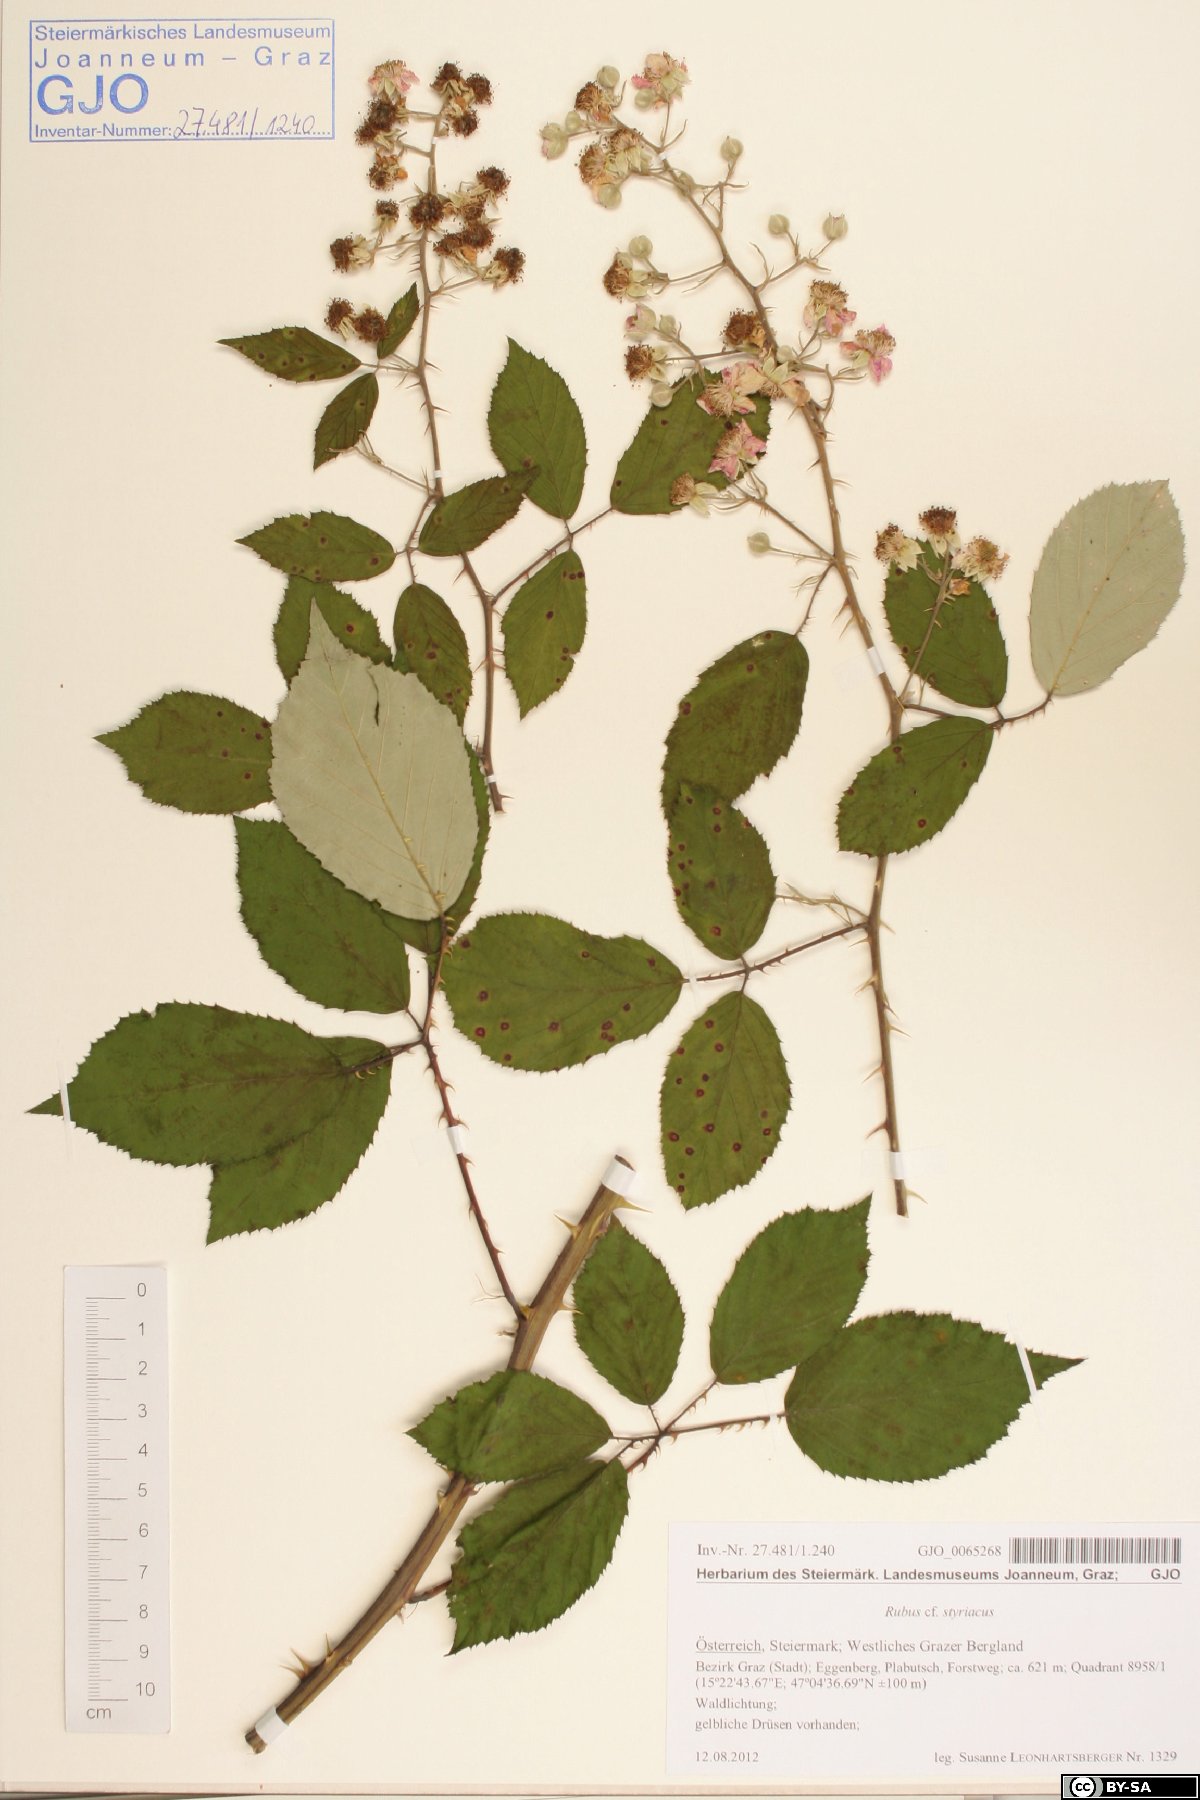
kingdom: Plantae
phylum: Tracheophyta
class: Magnoliopsida
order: Rosales
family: Rosaceae
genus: Rubus
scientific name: Rubus styriacus
